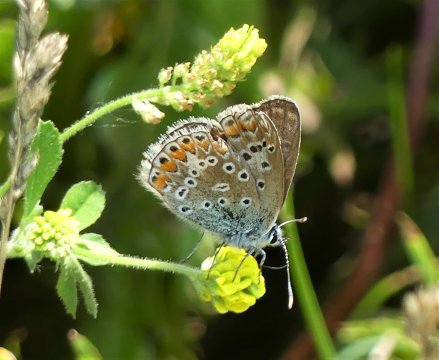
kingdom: Animalia
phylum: Arthropoda
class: Insecta
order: Lepidoptera
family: Lycaenidae
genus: Polyommatus
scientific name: Polyommatus icarus
